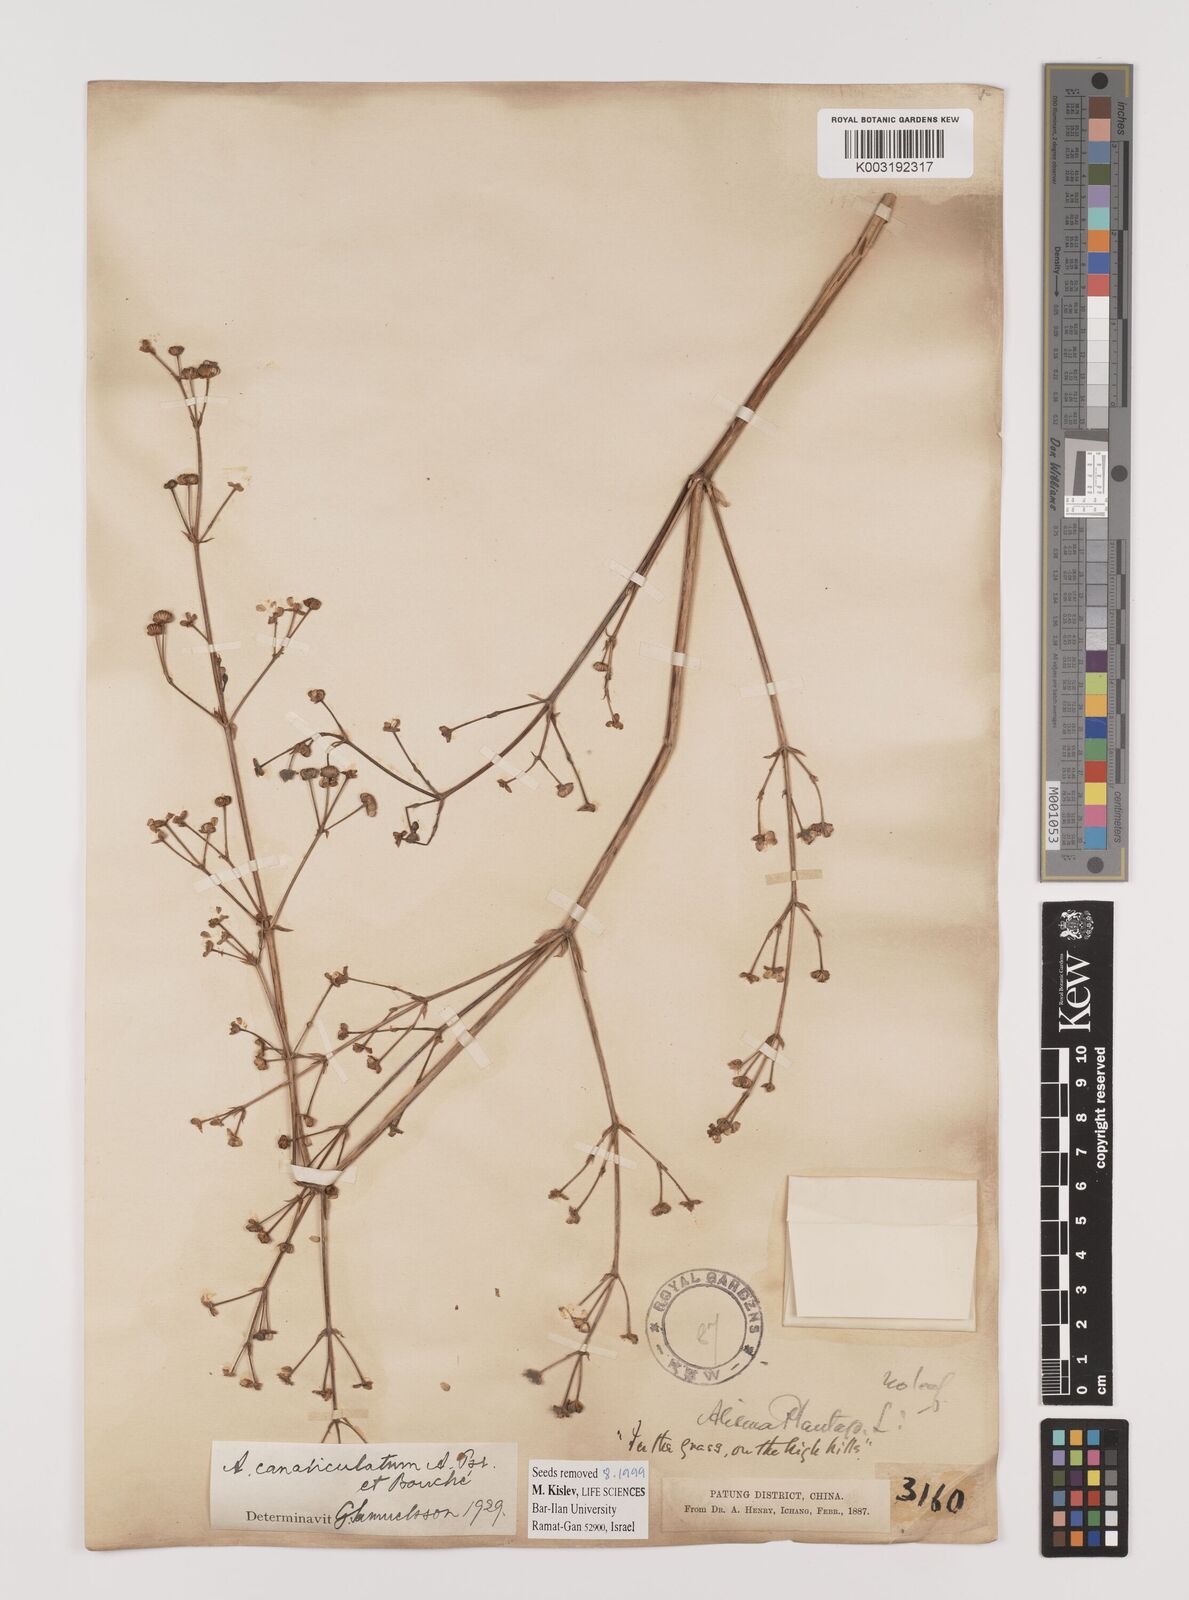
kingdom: Plantae
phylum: Tracheophyta
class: Liliopsida
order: Alismatales
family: Alismataceae
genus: Alisma
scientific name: Alisma canaliculatum
